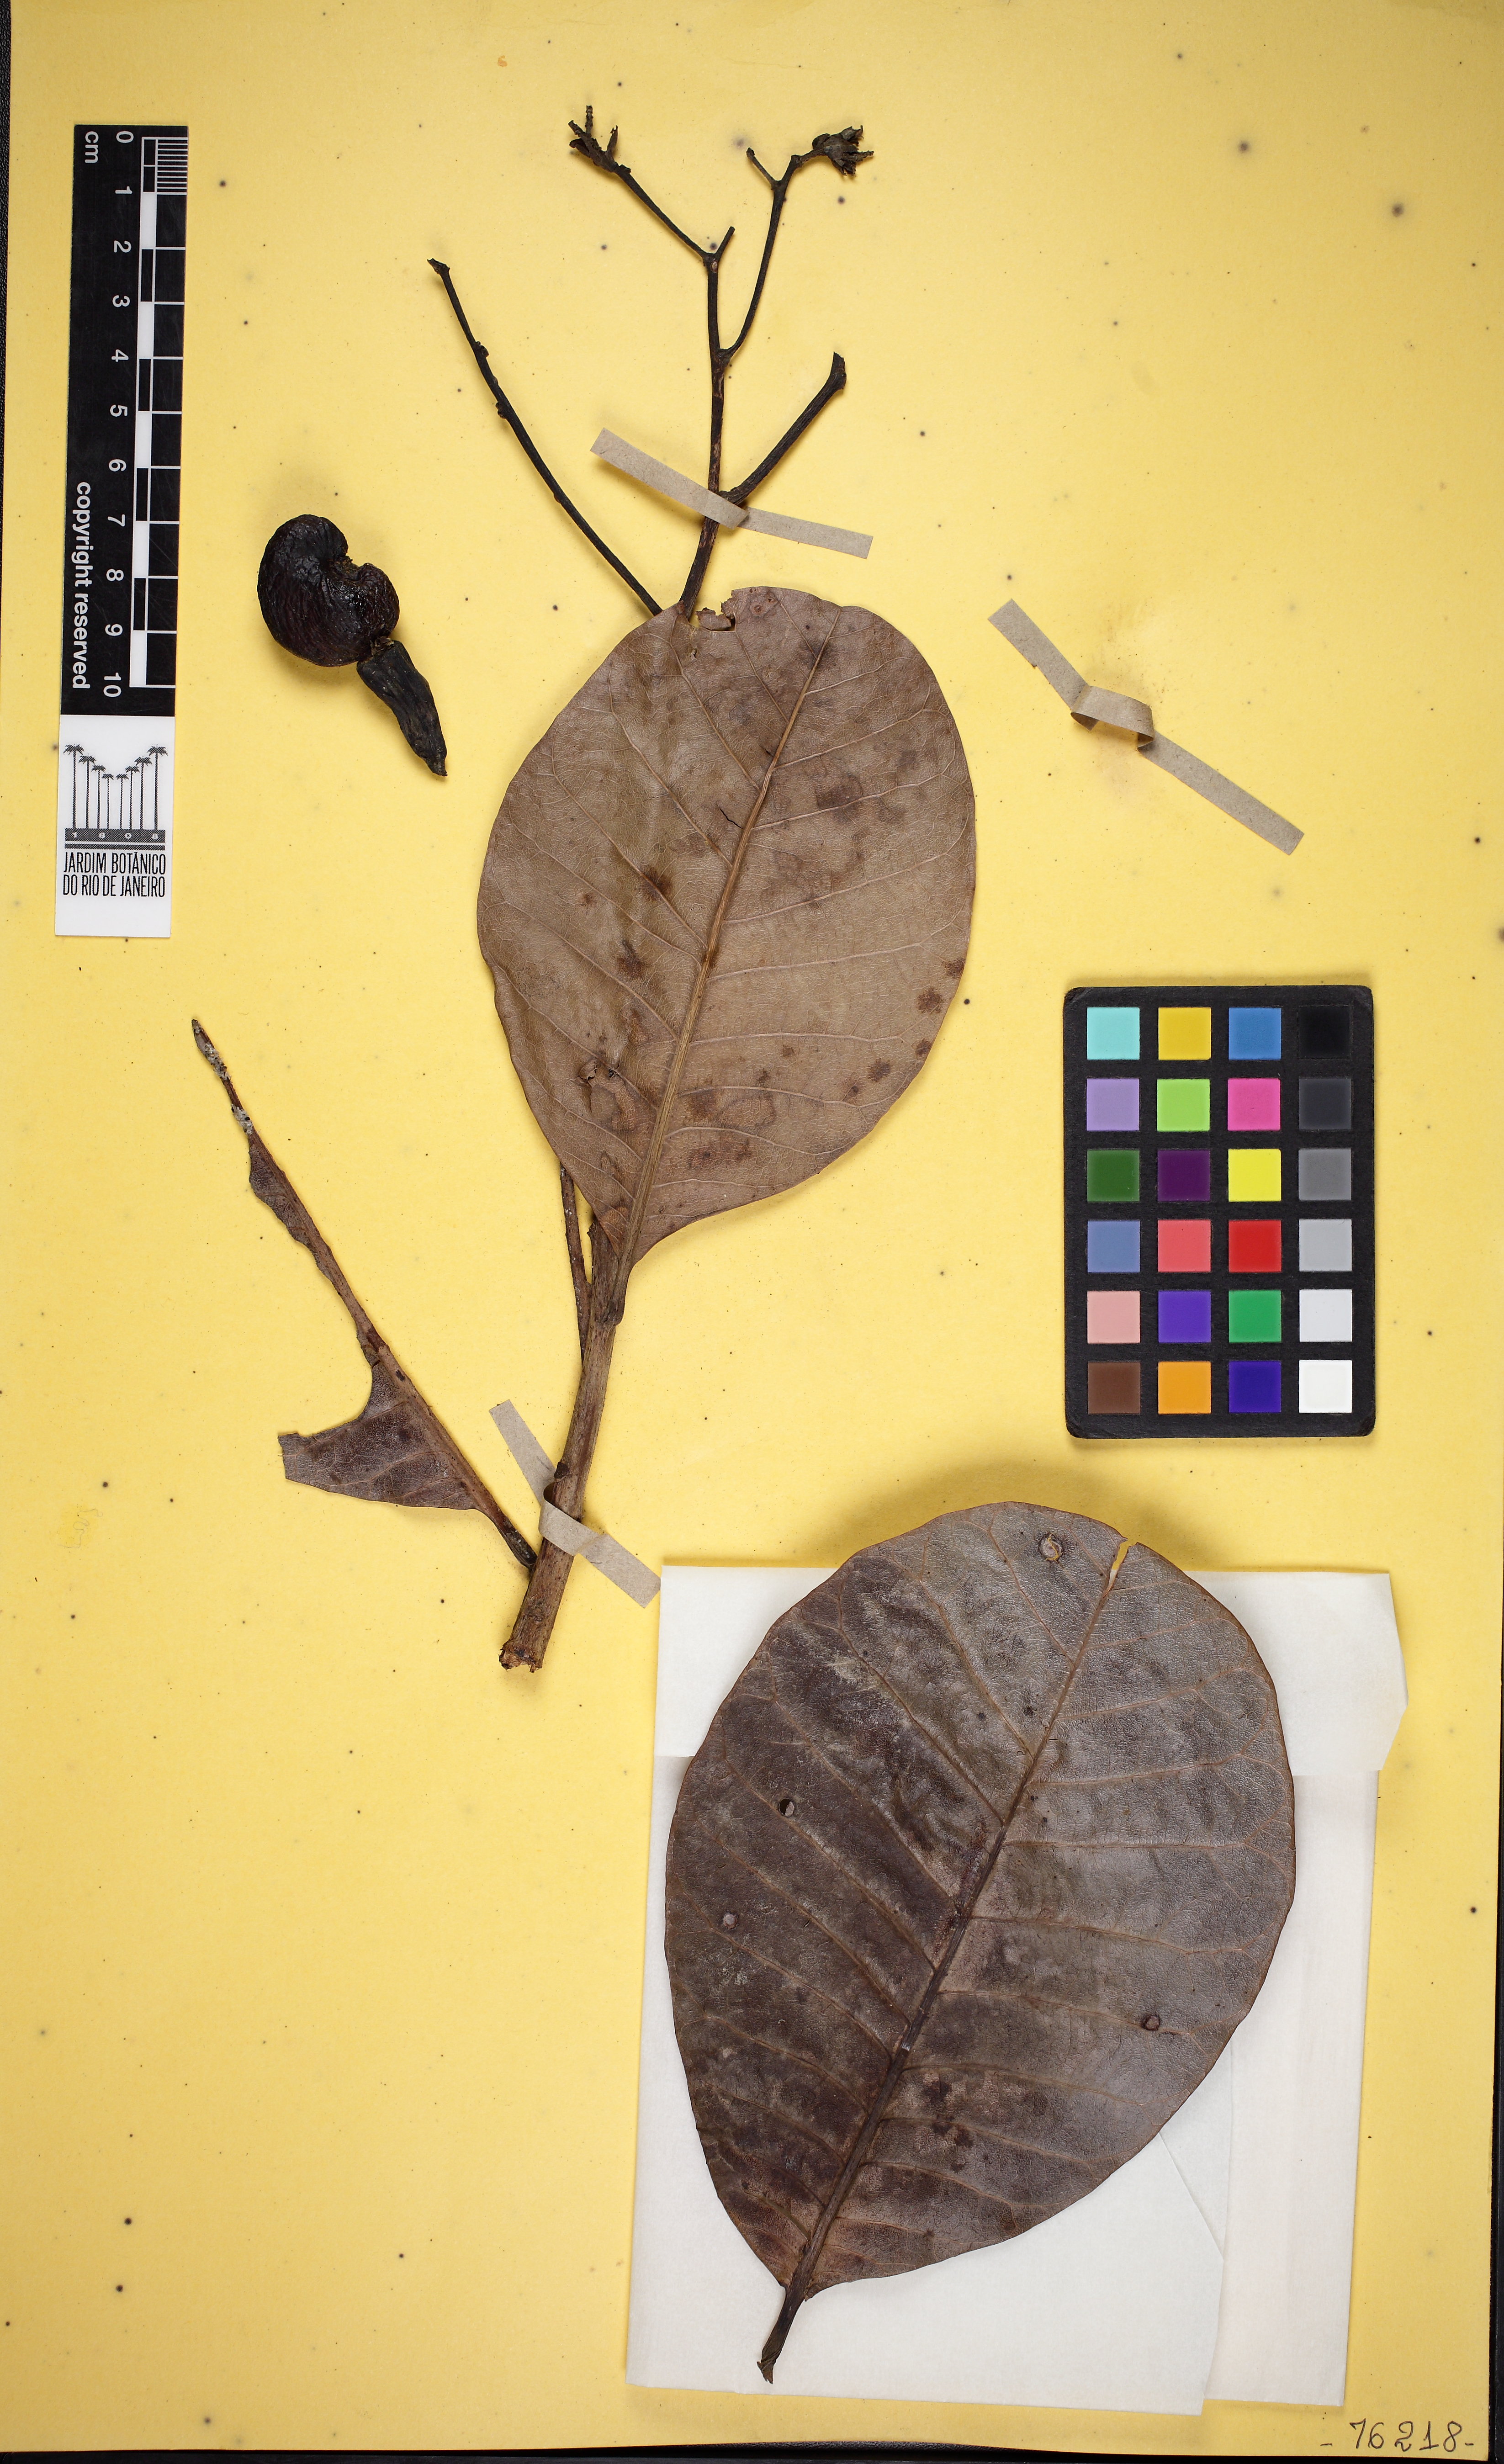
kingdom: Plantae
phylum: Tracheophyta
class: Magnoliopsida
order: Sapindales
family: Anacardiaceae
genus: Anacardium
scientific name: Anacardium occidentale
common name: Cashew
